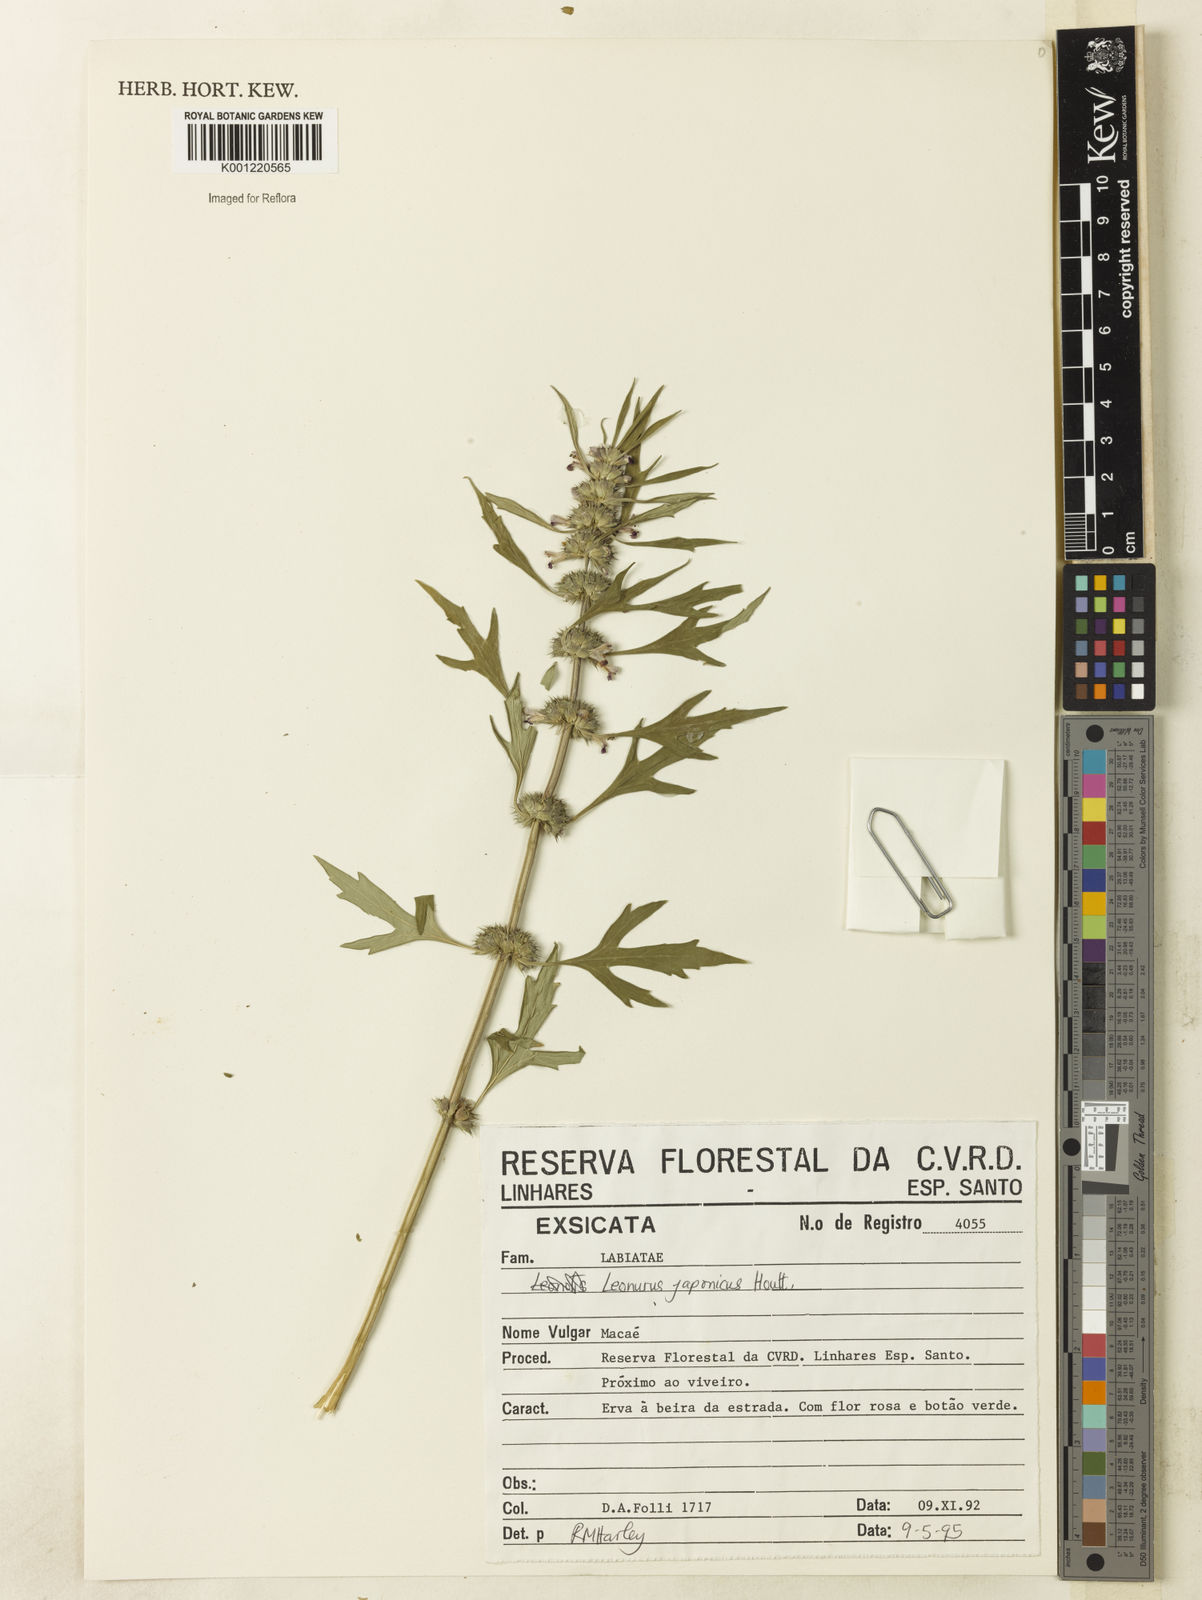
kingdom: Plantae
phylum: Tracheophyta
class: Magnoliopsida
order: Lamiales
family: Lamiaceae
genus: Leonurus
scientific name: Leonurus japonicus
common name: Honeyweed
